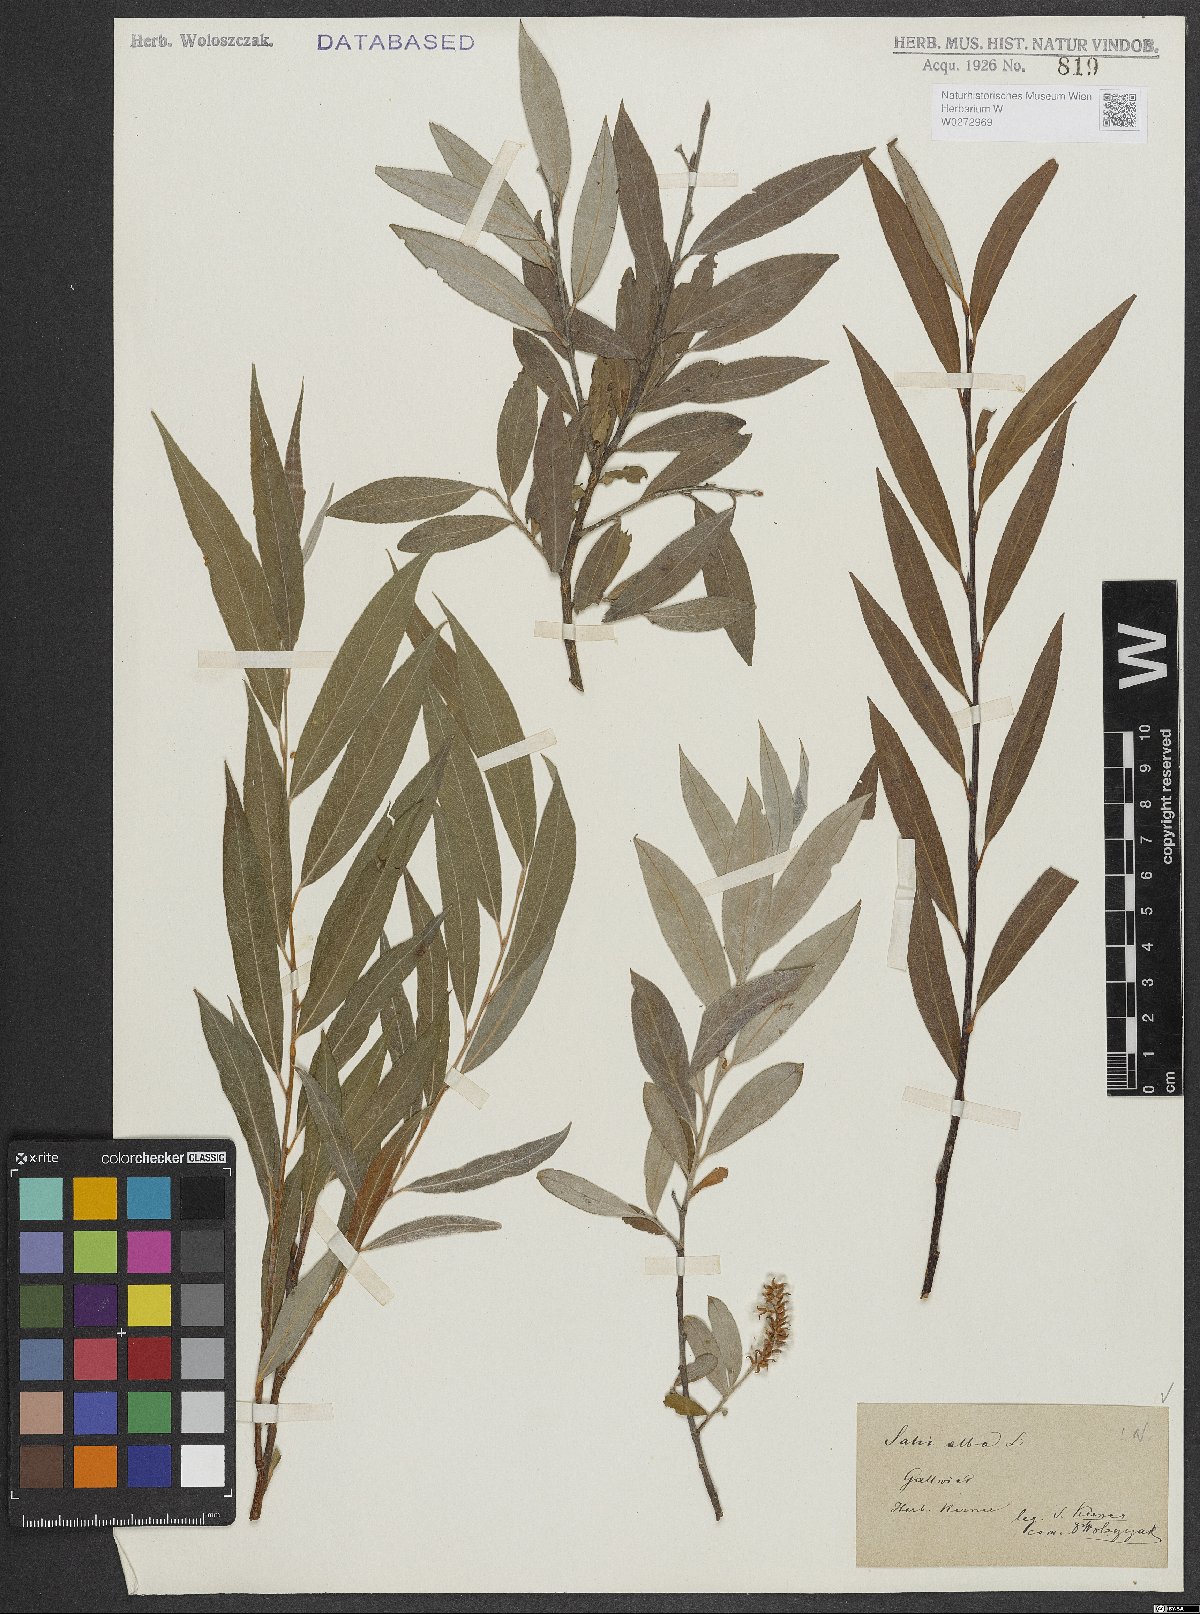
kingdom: Plantae
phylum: Tracheophyta
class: Magnoliopsida
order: Malpighiales
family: Salicaceae
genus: Salix
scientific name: Salix alba
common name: White willow
